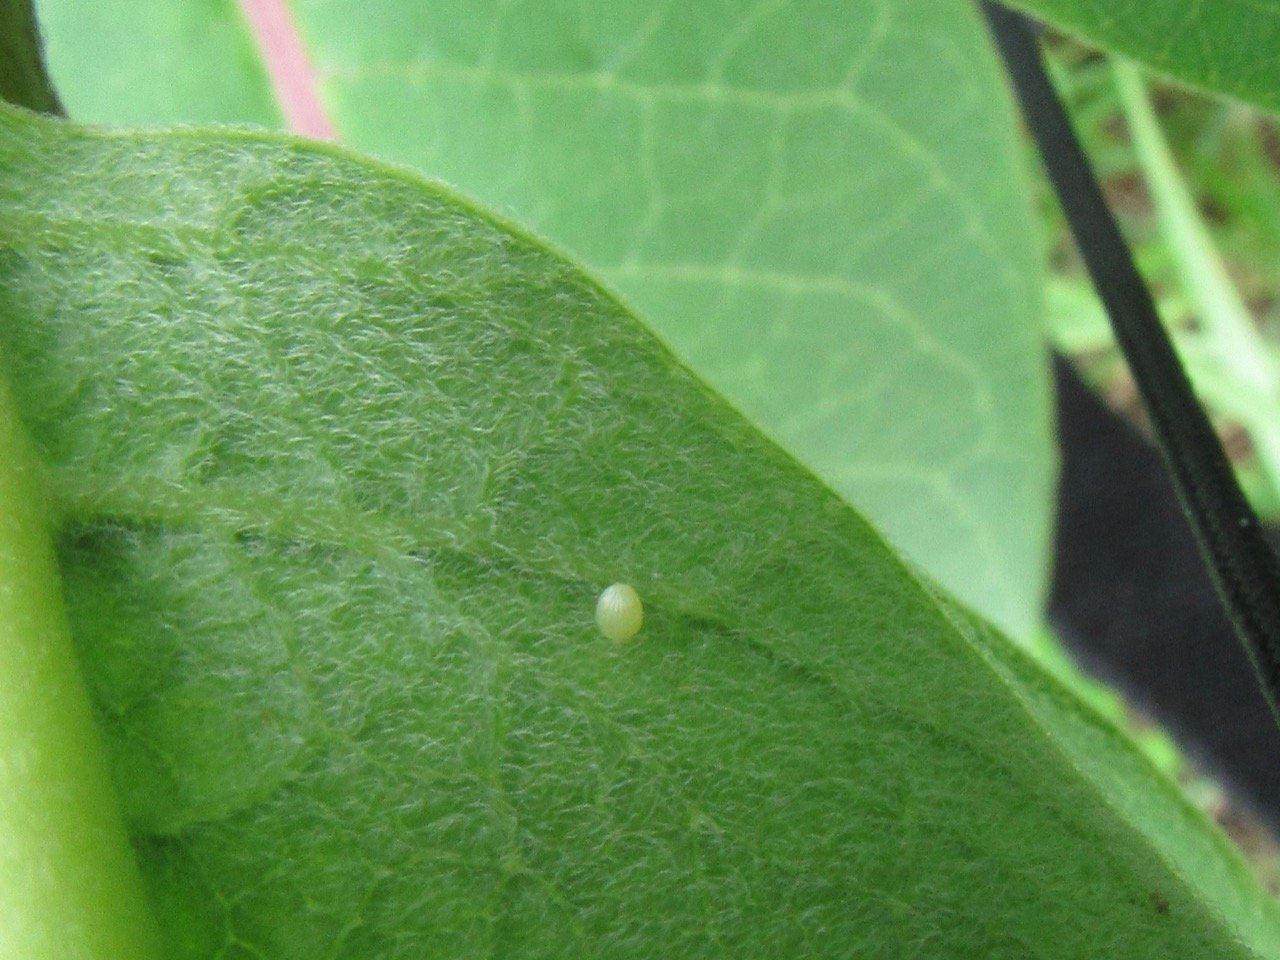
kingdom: Animalia
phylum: Arthropoda
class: Insecta
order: Lepidoptera
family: Nymphalidae
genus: Danaus
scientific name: Danaus plexippus
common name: Monarch
